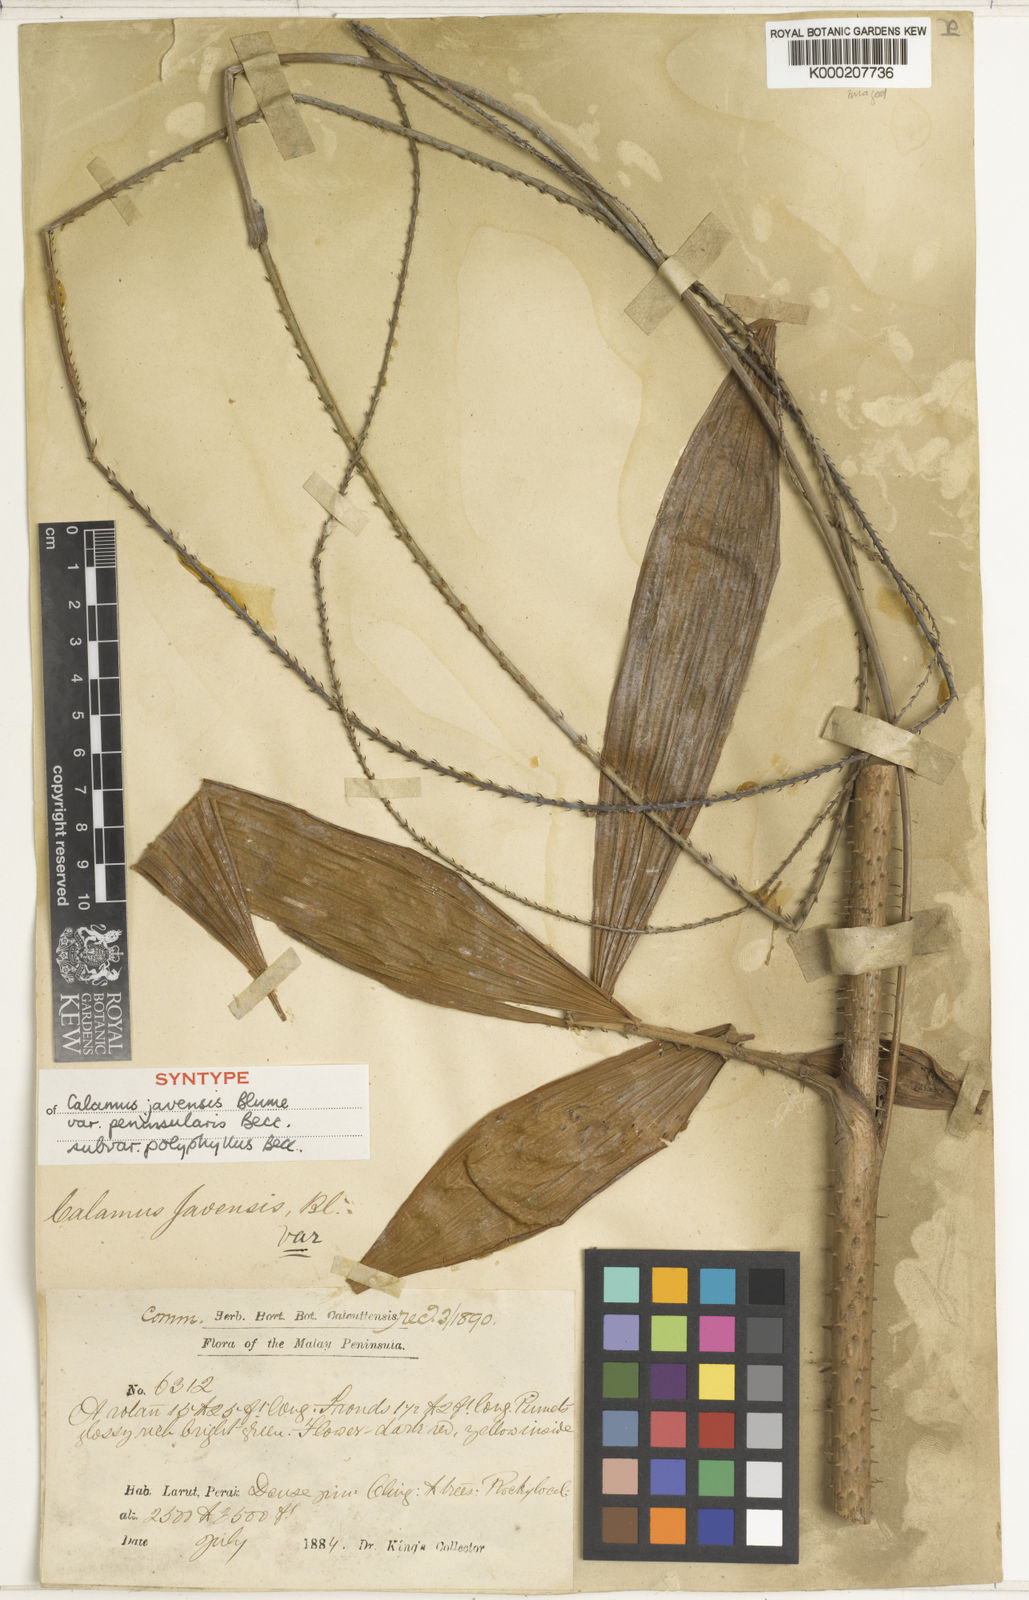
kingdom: Plantae
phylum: Tracheophyta
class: Liliopsida
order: Arecales
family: Arecaceae
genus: Calamus
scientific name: Calamus javensis
